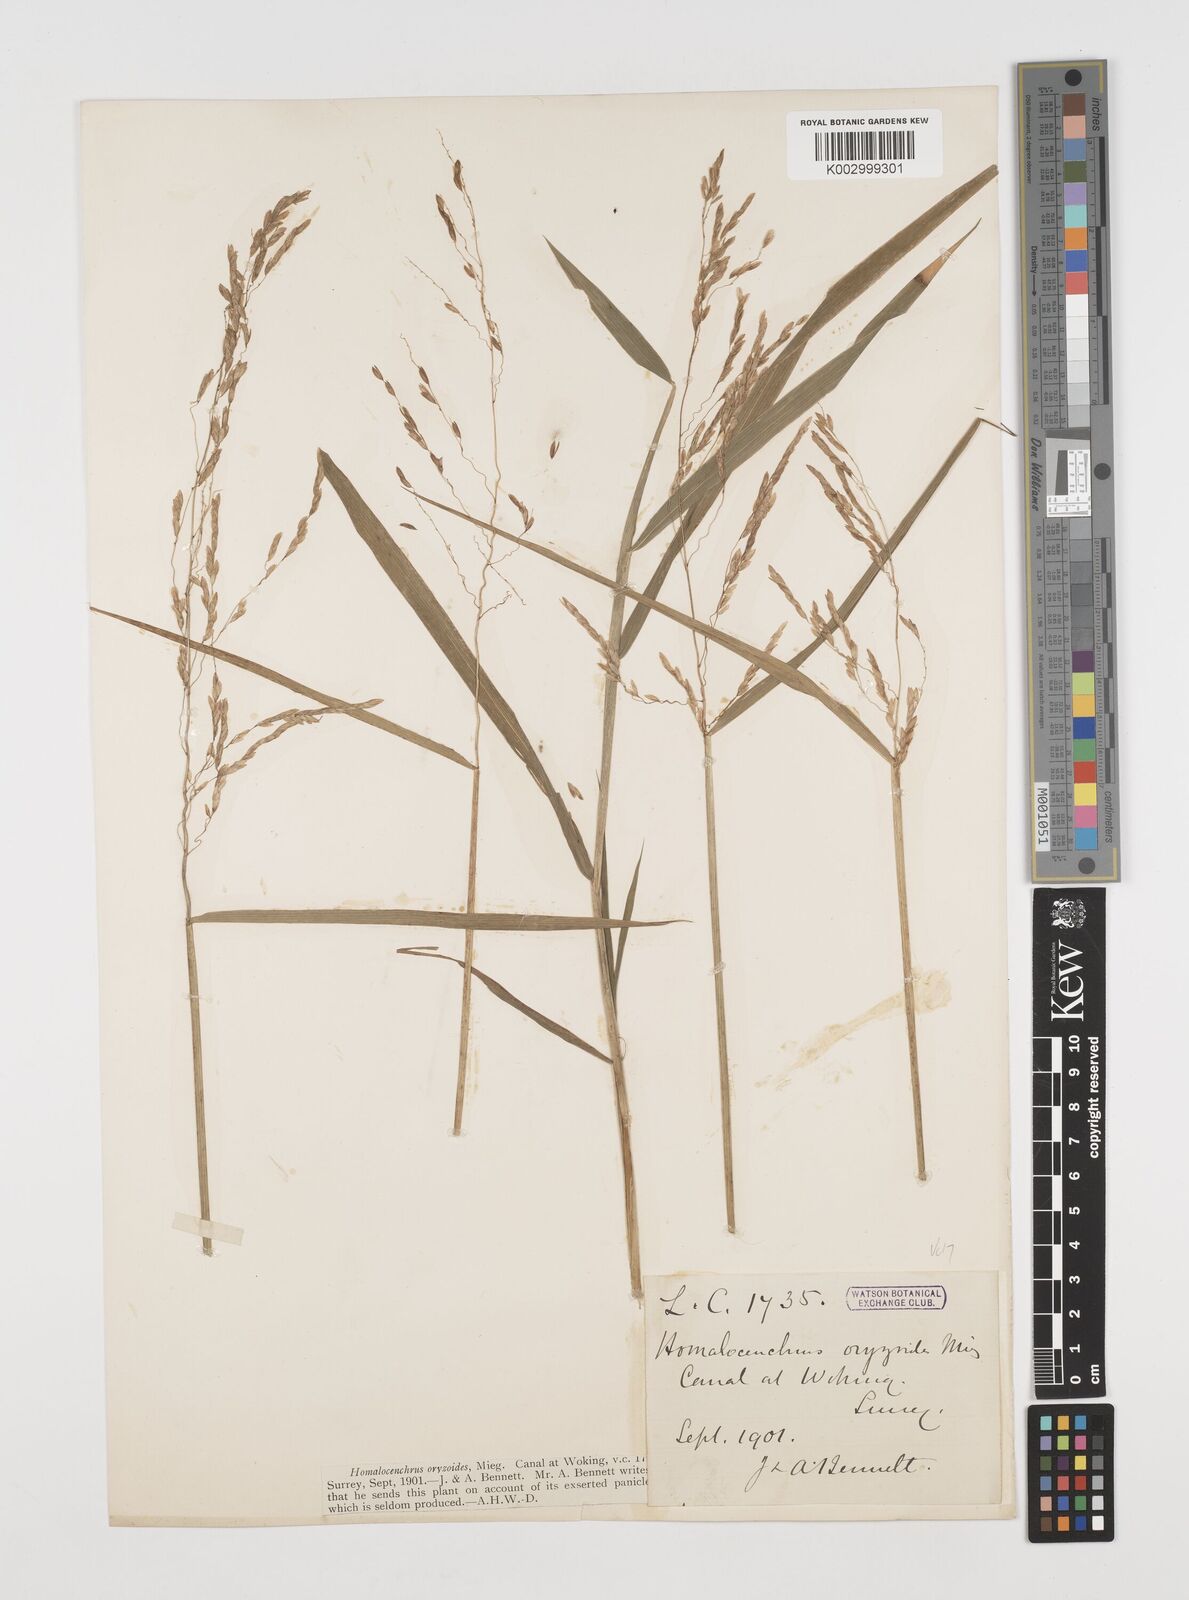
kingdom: Plantae
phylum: Tracheophyta
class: Liliopsida
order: Poales
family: Poaceae
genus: Leersia
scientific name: Leersia oryzoides
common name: Cut-grass
